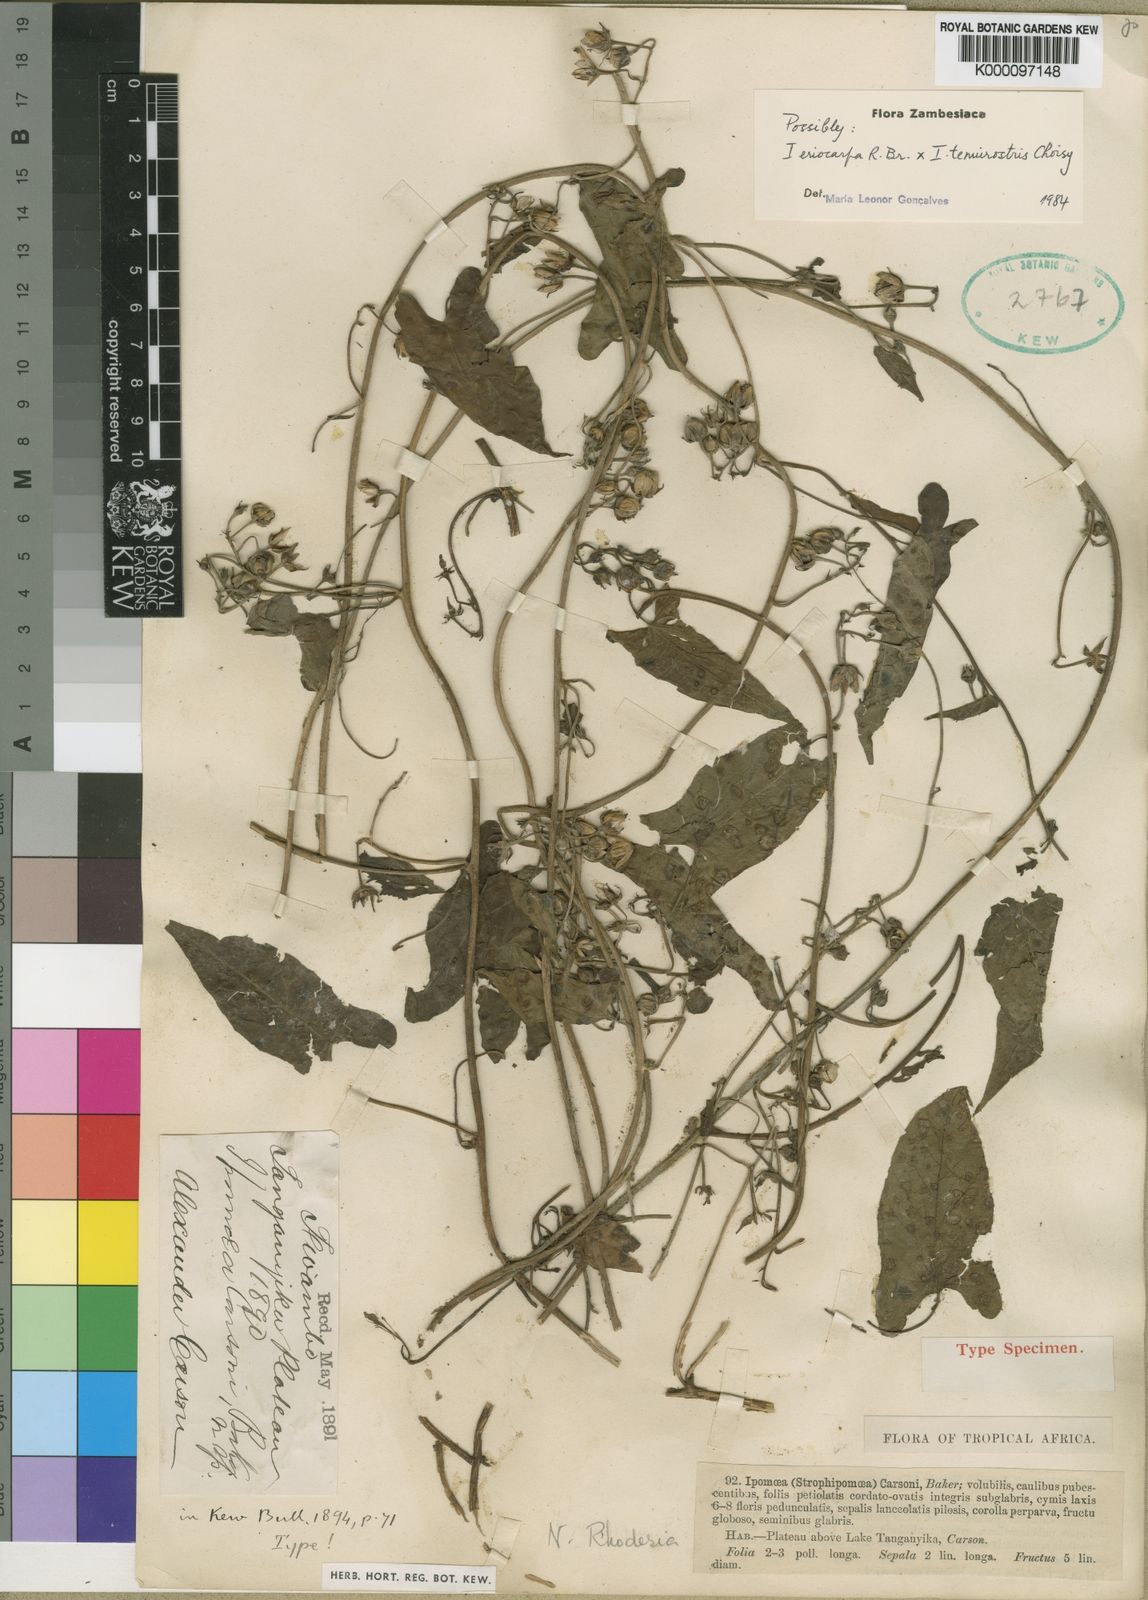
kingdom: Plantae
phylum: Tracheophyta
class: Magnoliopsida
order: Solanales
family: Convolvulaceae
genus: Ipomoea
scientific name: Ipomoea eriocarpa
